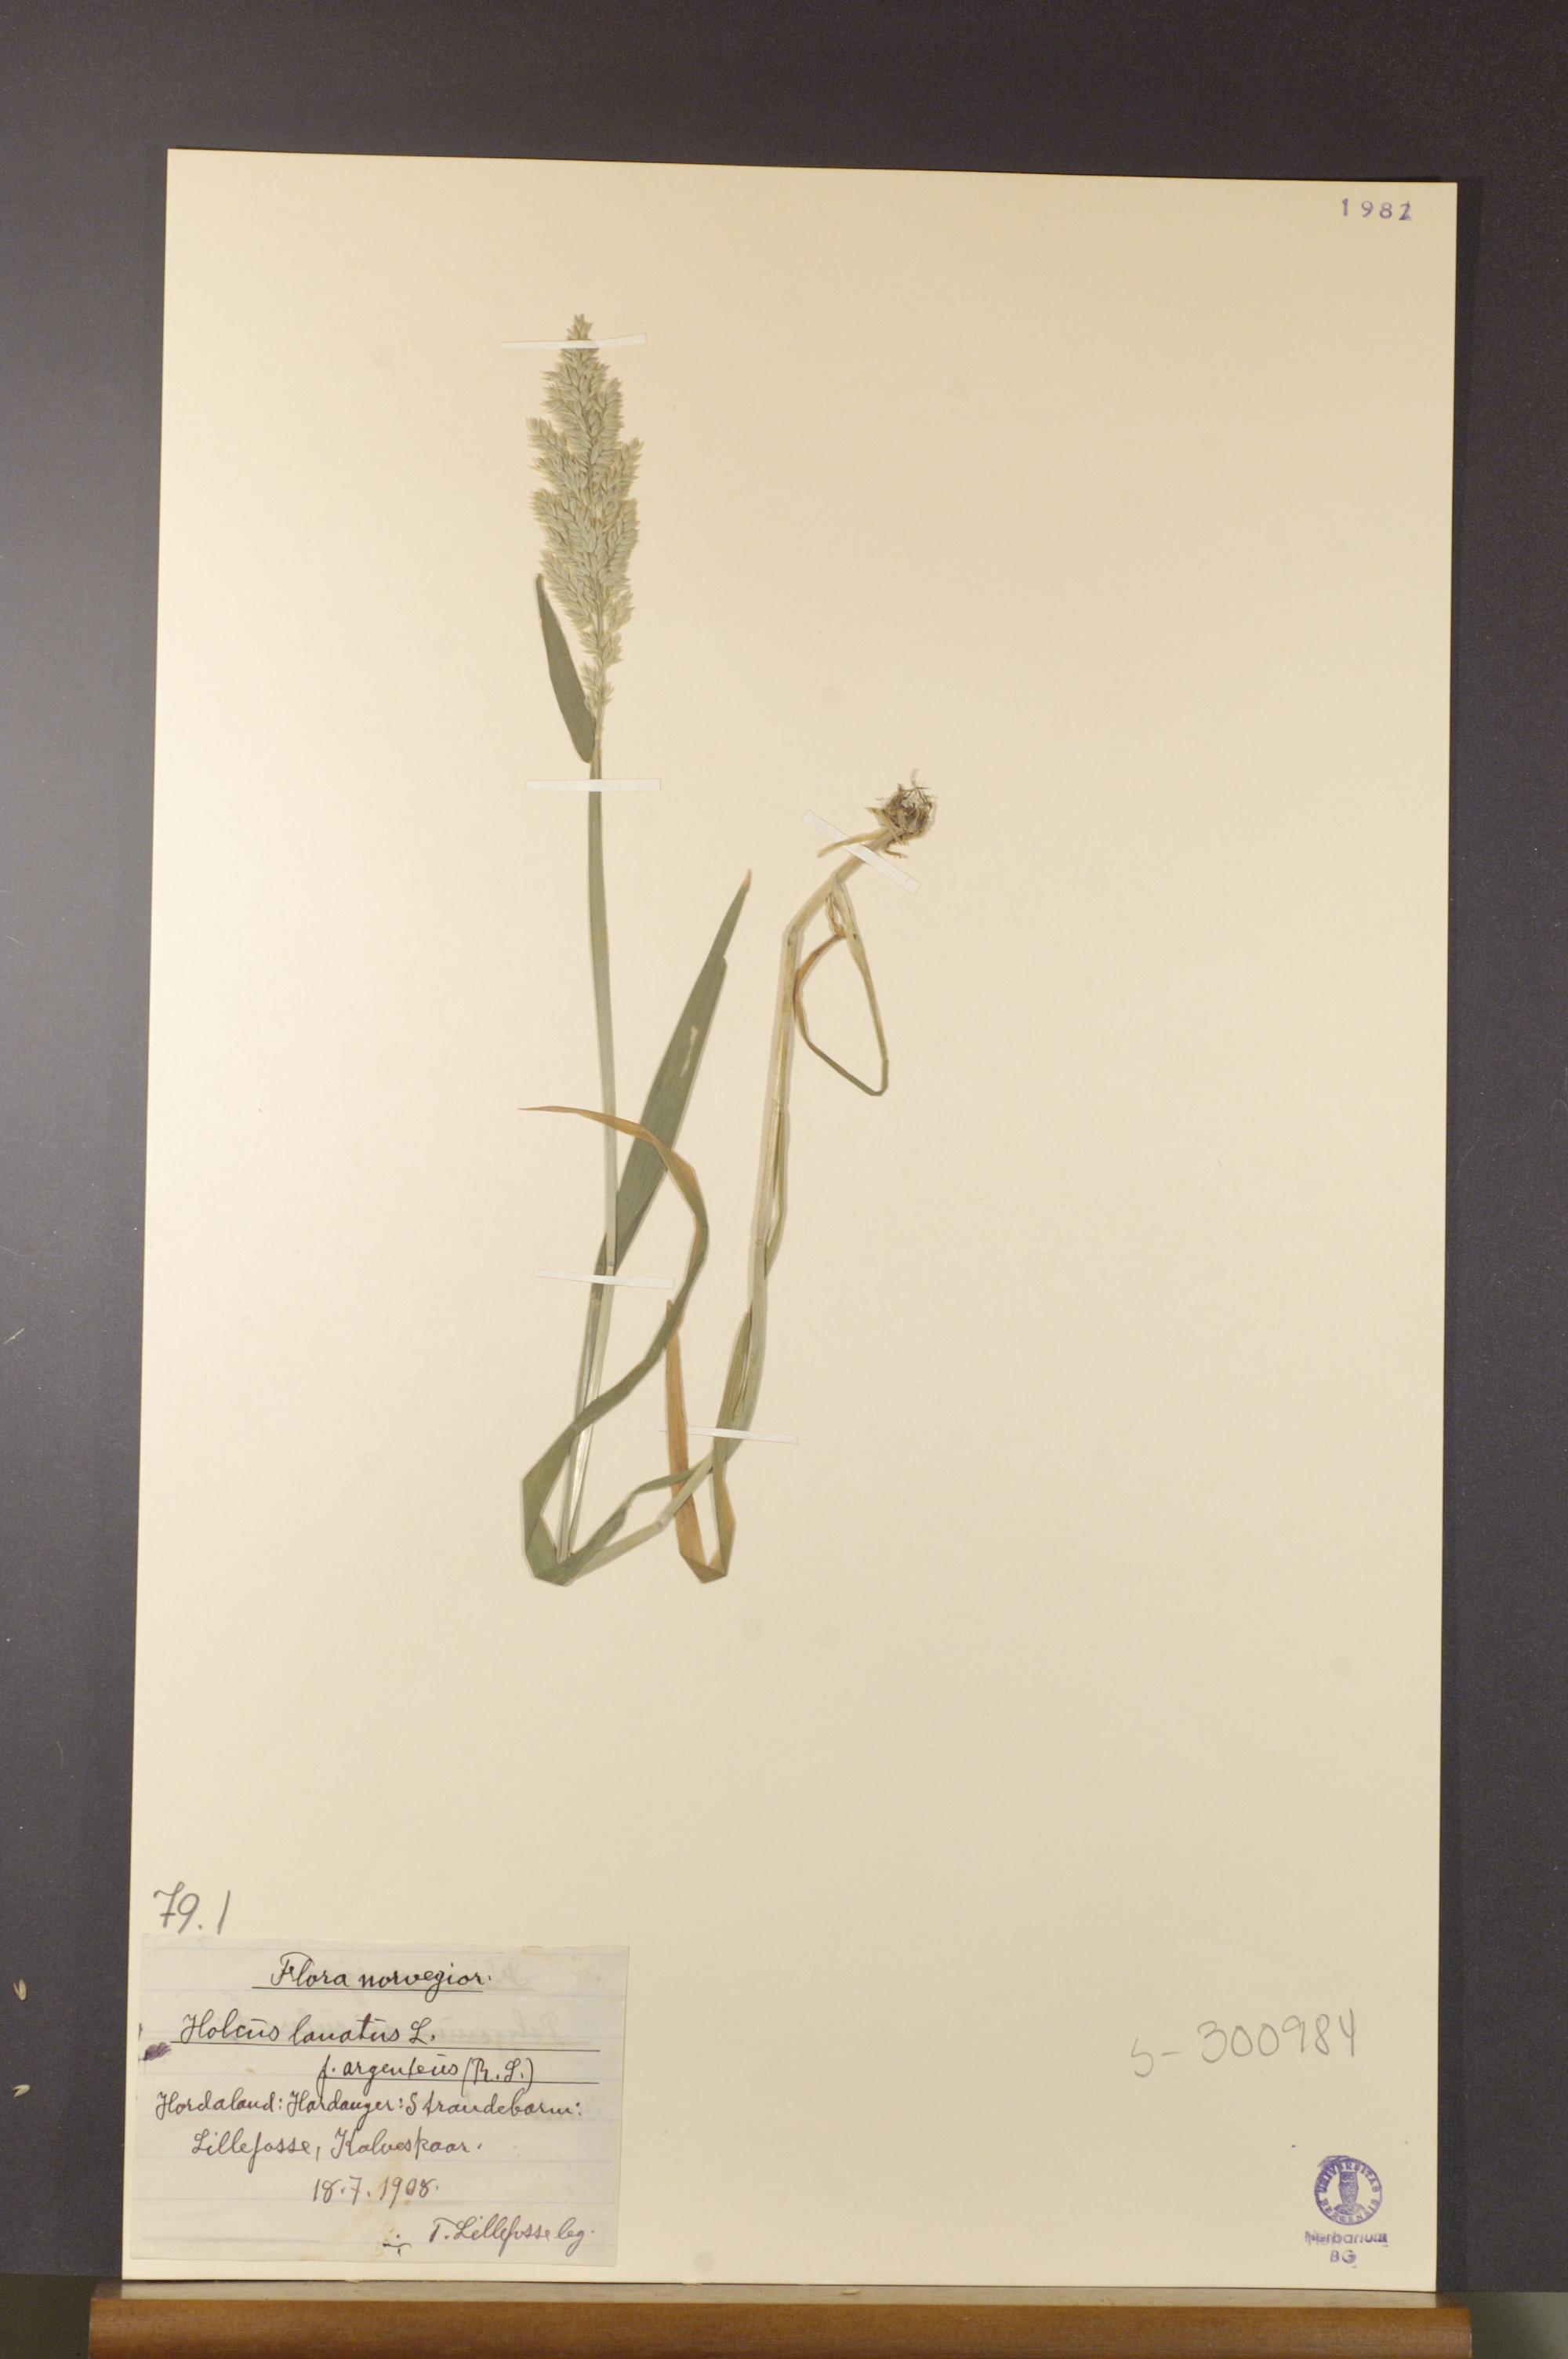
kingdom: Plantae
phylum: Tracheophyta
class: Liliopsida
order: Poales
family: Poaceae
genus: Holcus
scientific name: Holcus lanatus
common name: Yorkshire-fog
